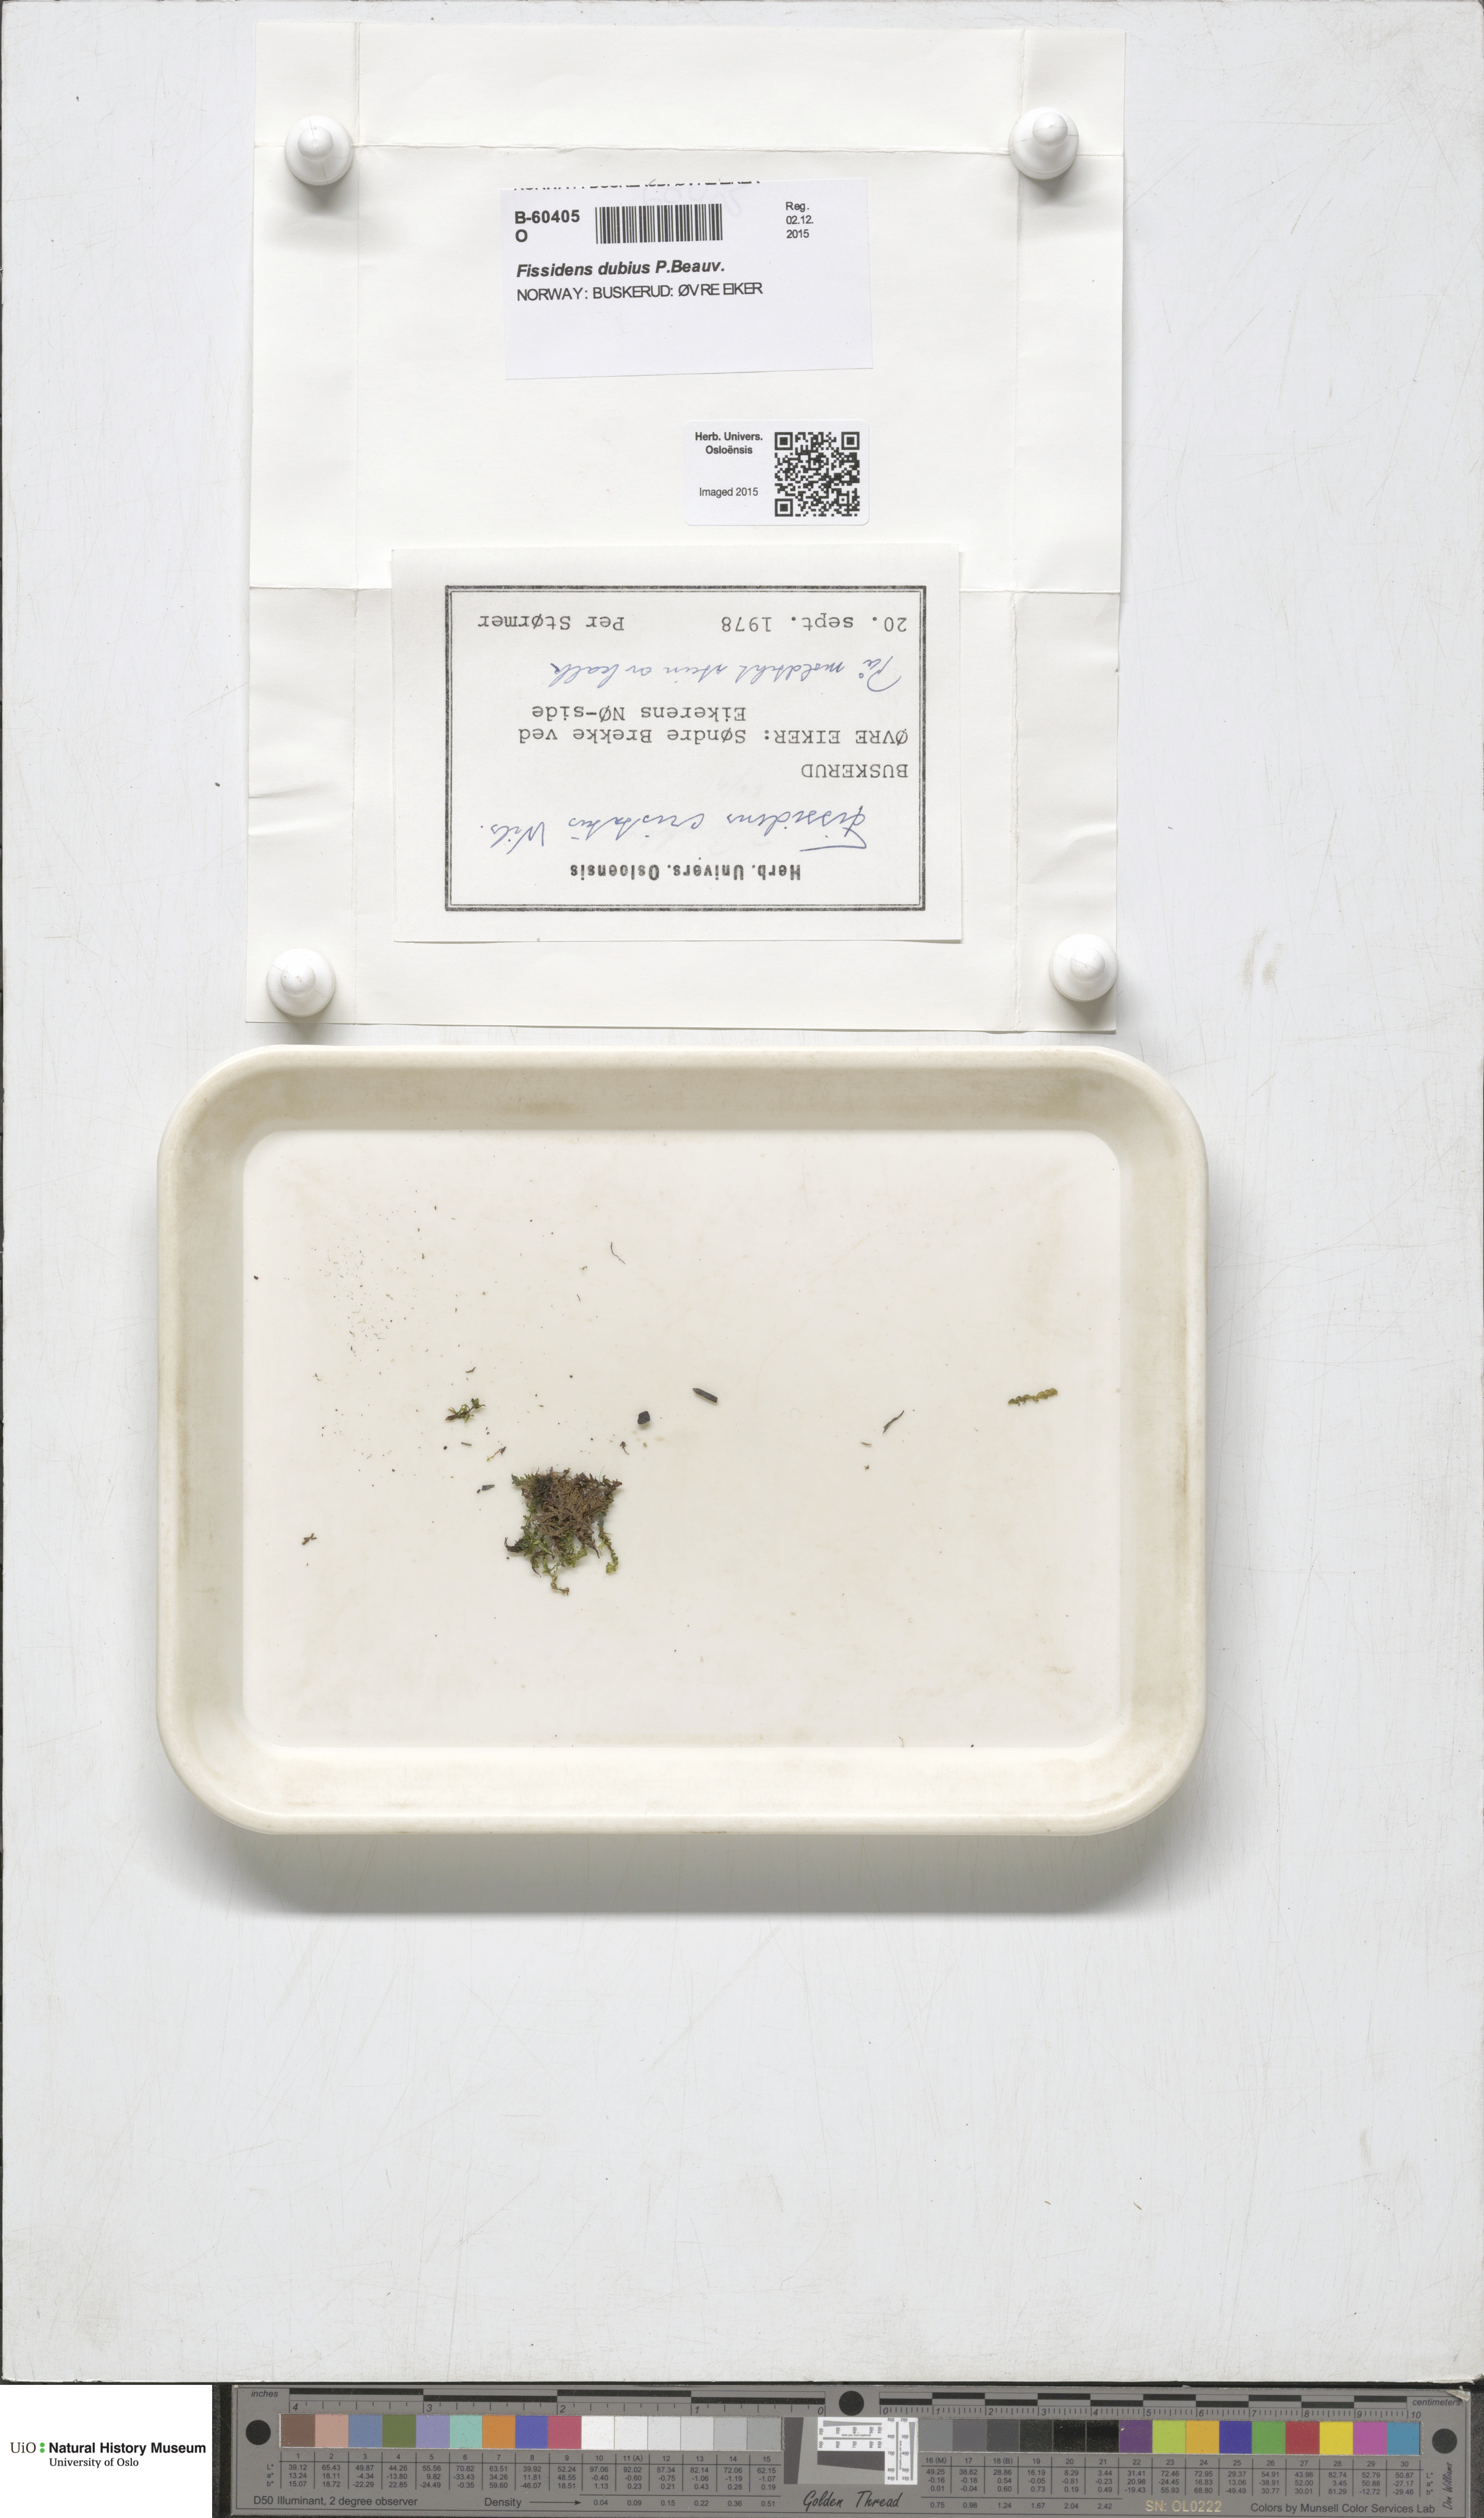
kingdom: Plantae
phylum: Bryophyta
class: Bryopsida
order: Dicranales
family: Fissidentaceae
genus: Fissidens
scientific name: Fissidens dubius
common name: Rock pocket moss
